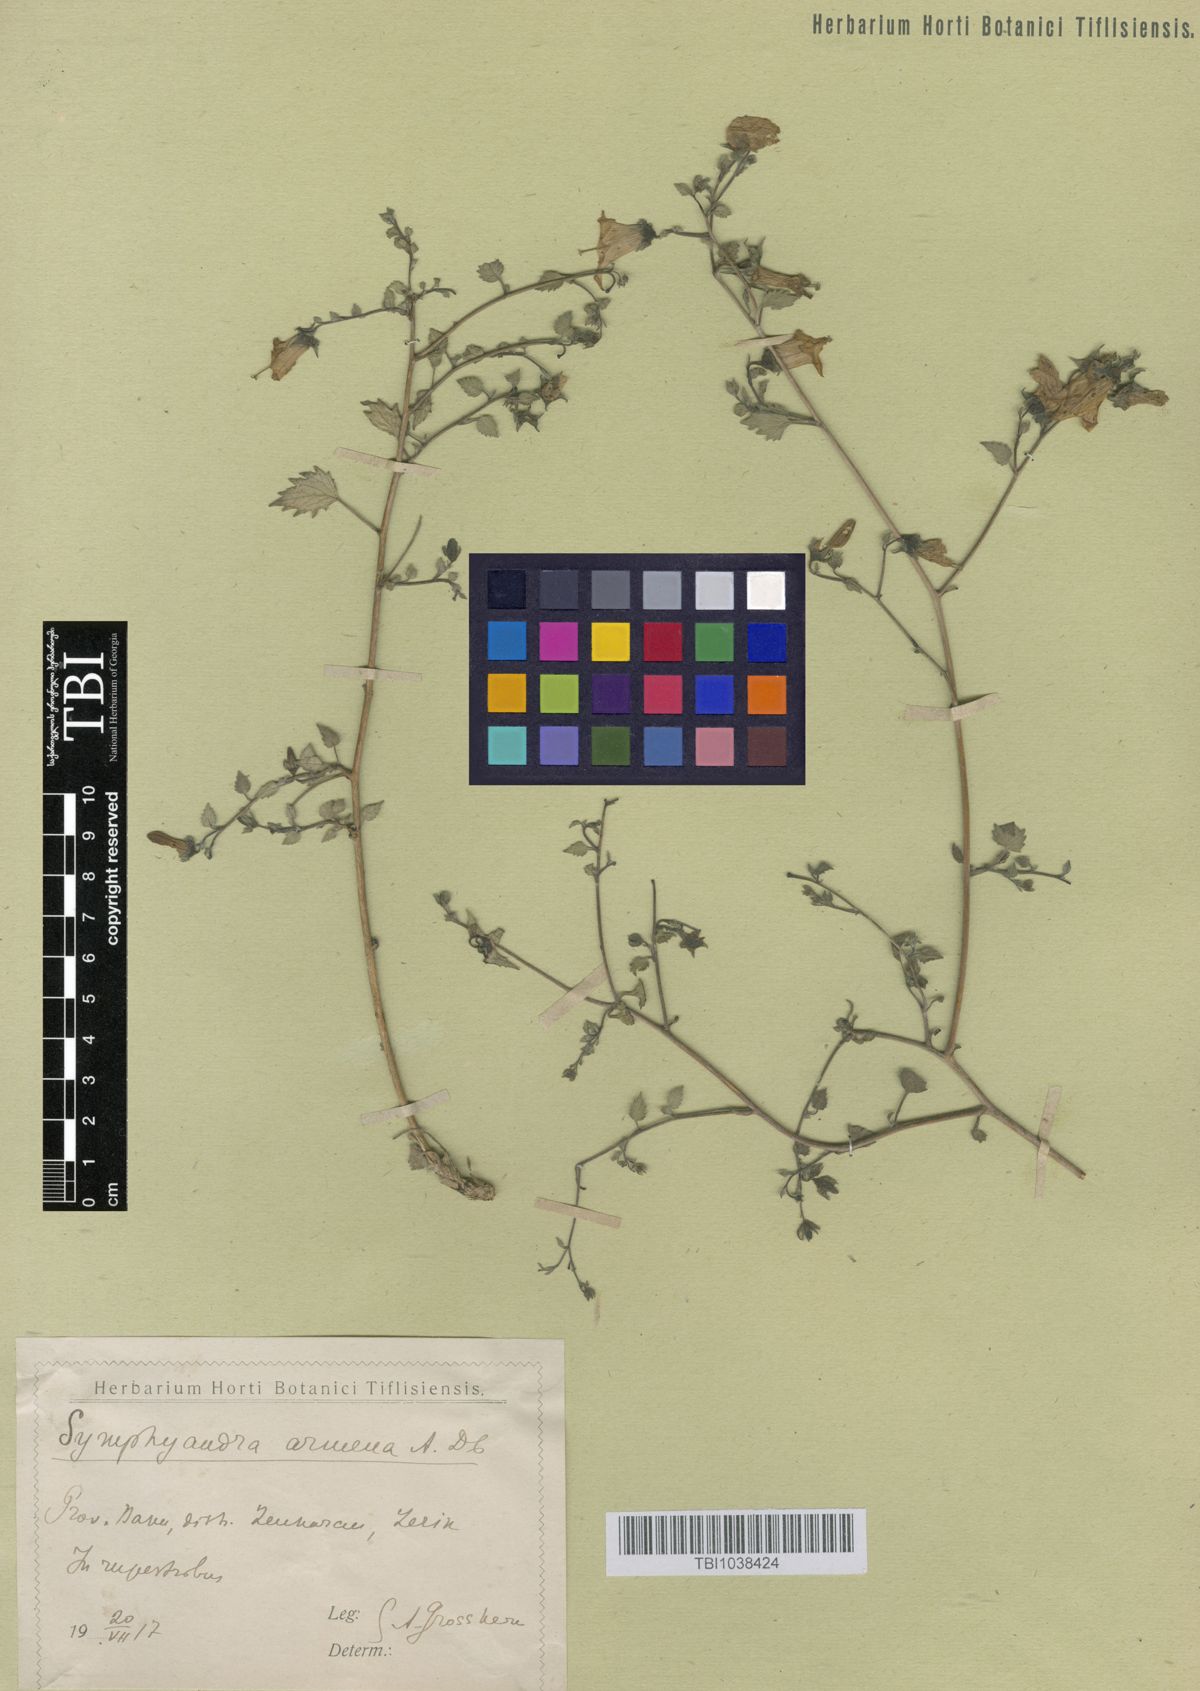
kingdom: Plantae
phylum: Tracheophyta
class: Magnoliopsida
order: Asterales
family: Campanulaceae
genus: Campanula
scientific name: Campanula armena
